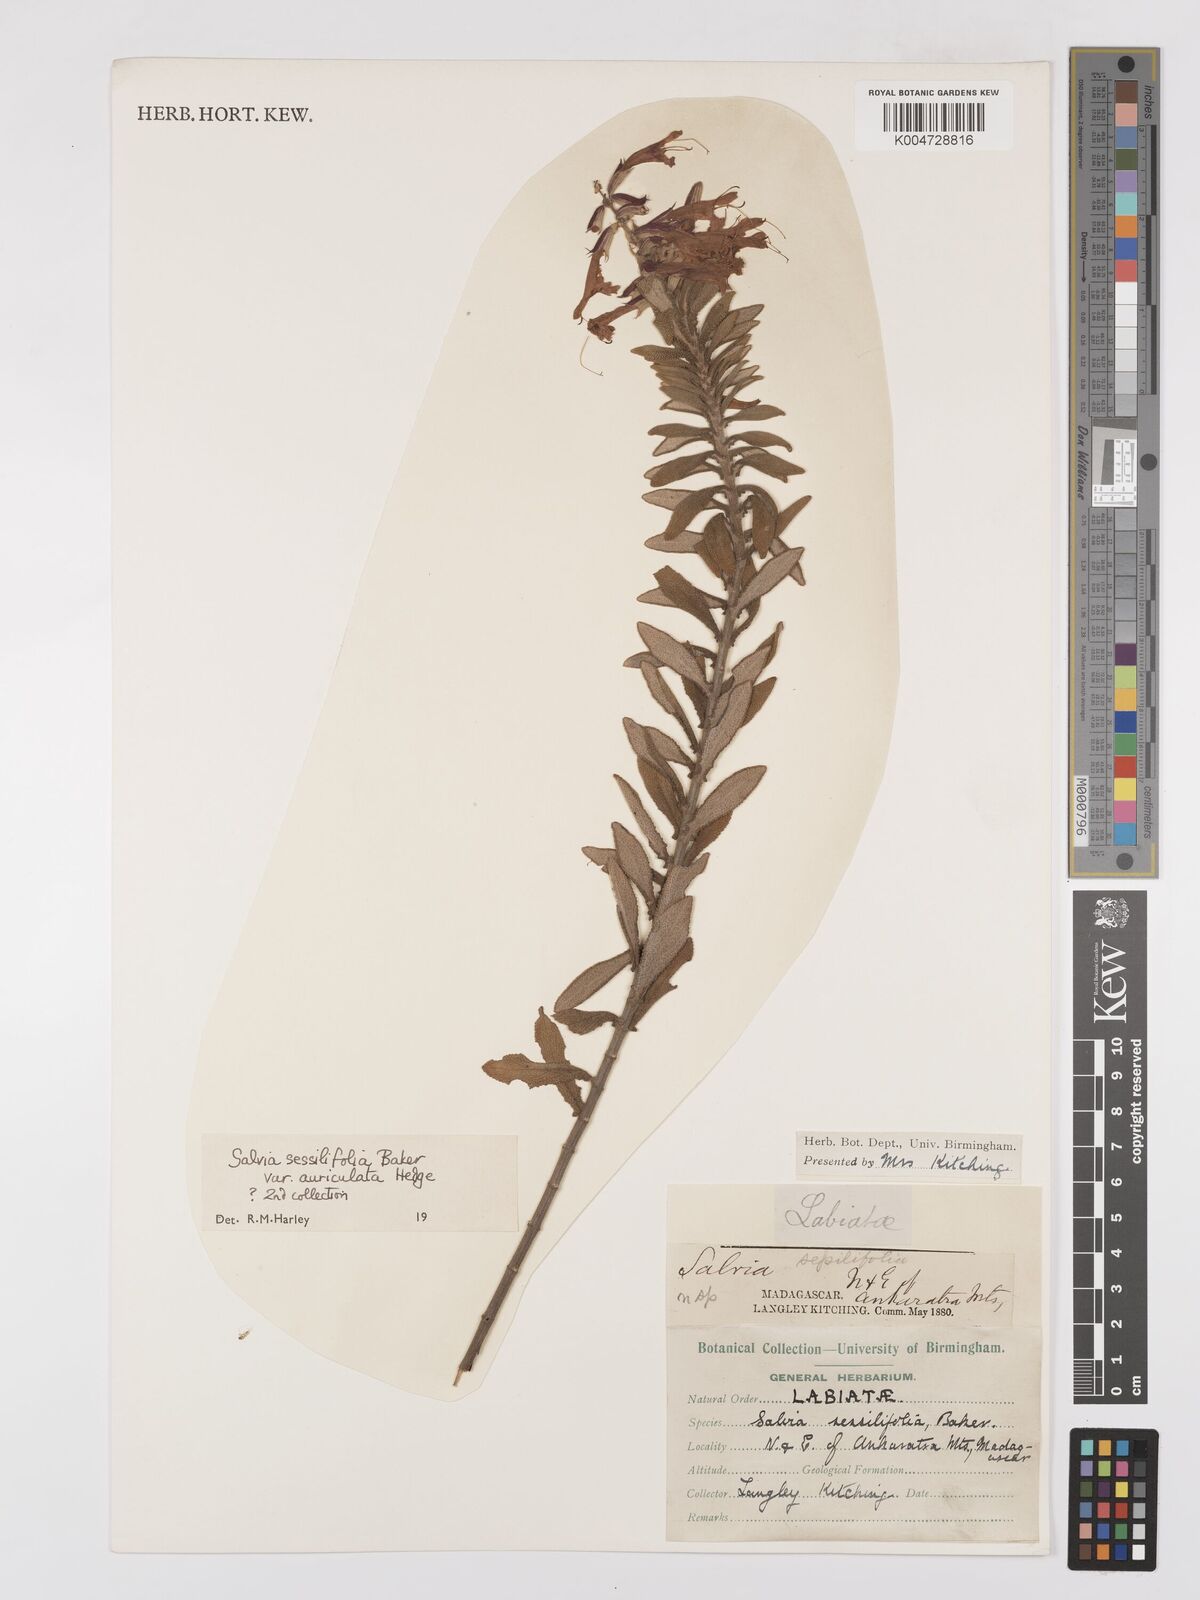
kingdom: Plantae
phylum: Tracheophyta
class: Magnoliopsida
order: Lamiales
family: Lamiaceae
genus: Salvia
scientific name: Salvia sessilifolia
